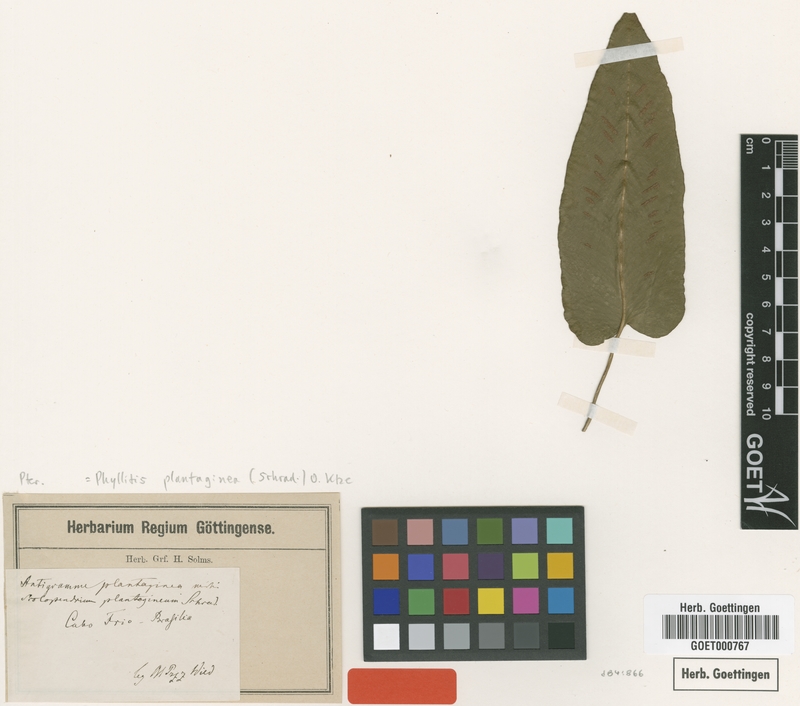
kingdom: Plantae
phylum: Tracheophyta
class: Polypodiopsida
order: Polypodiales
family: Aspleniaceae
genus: Asplenium
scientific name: Asplenium douglasii
